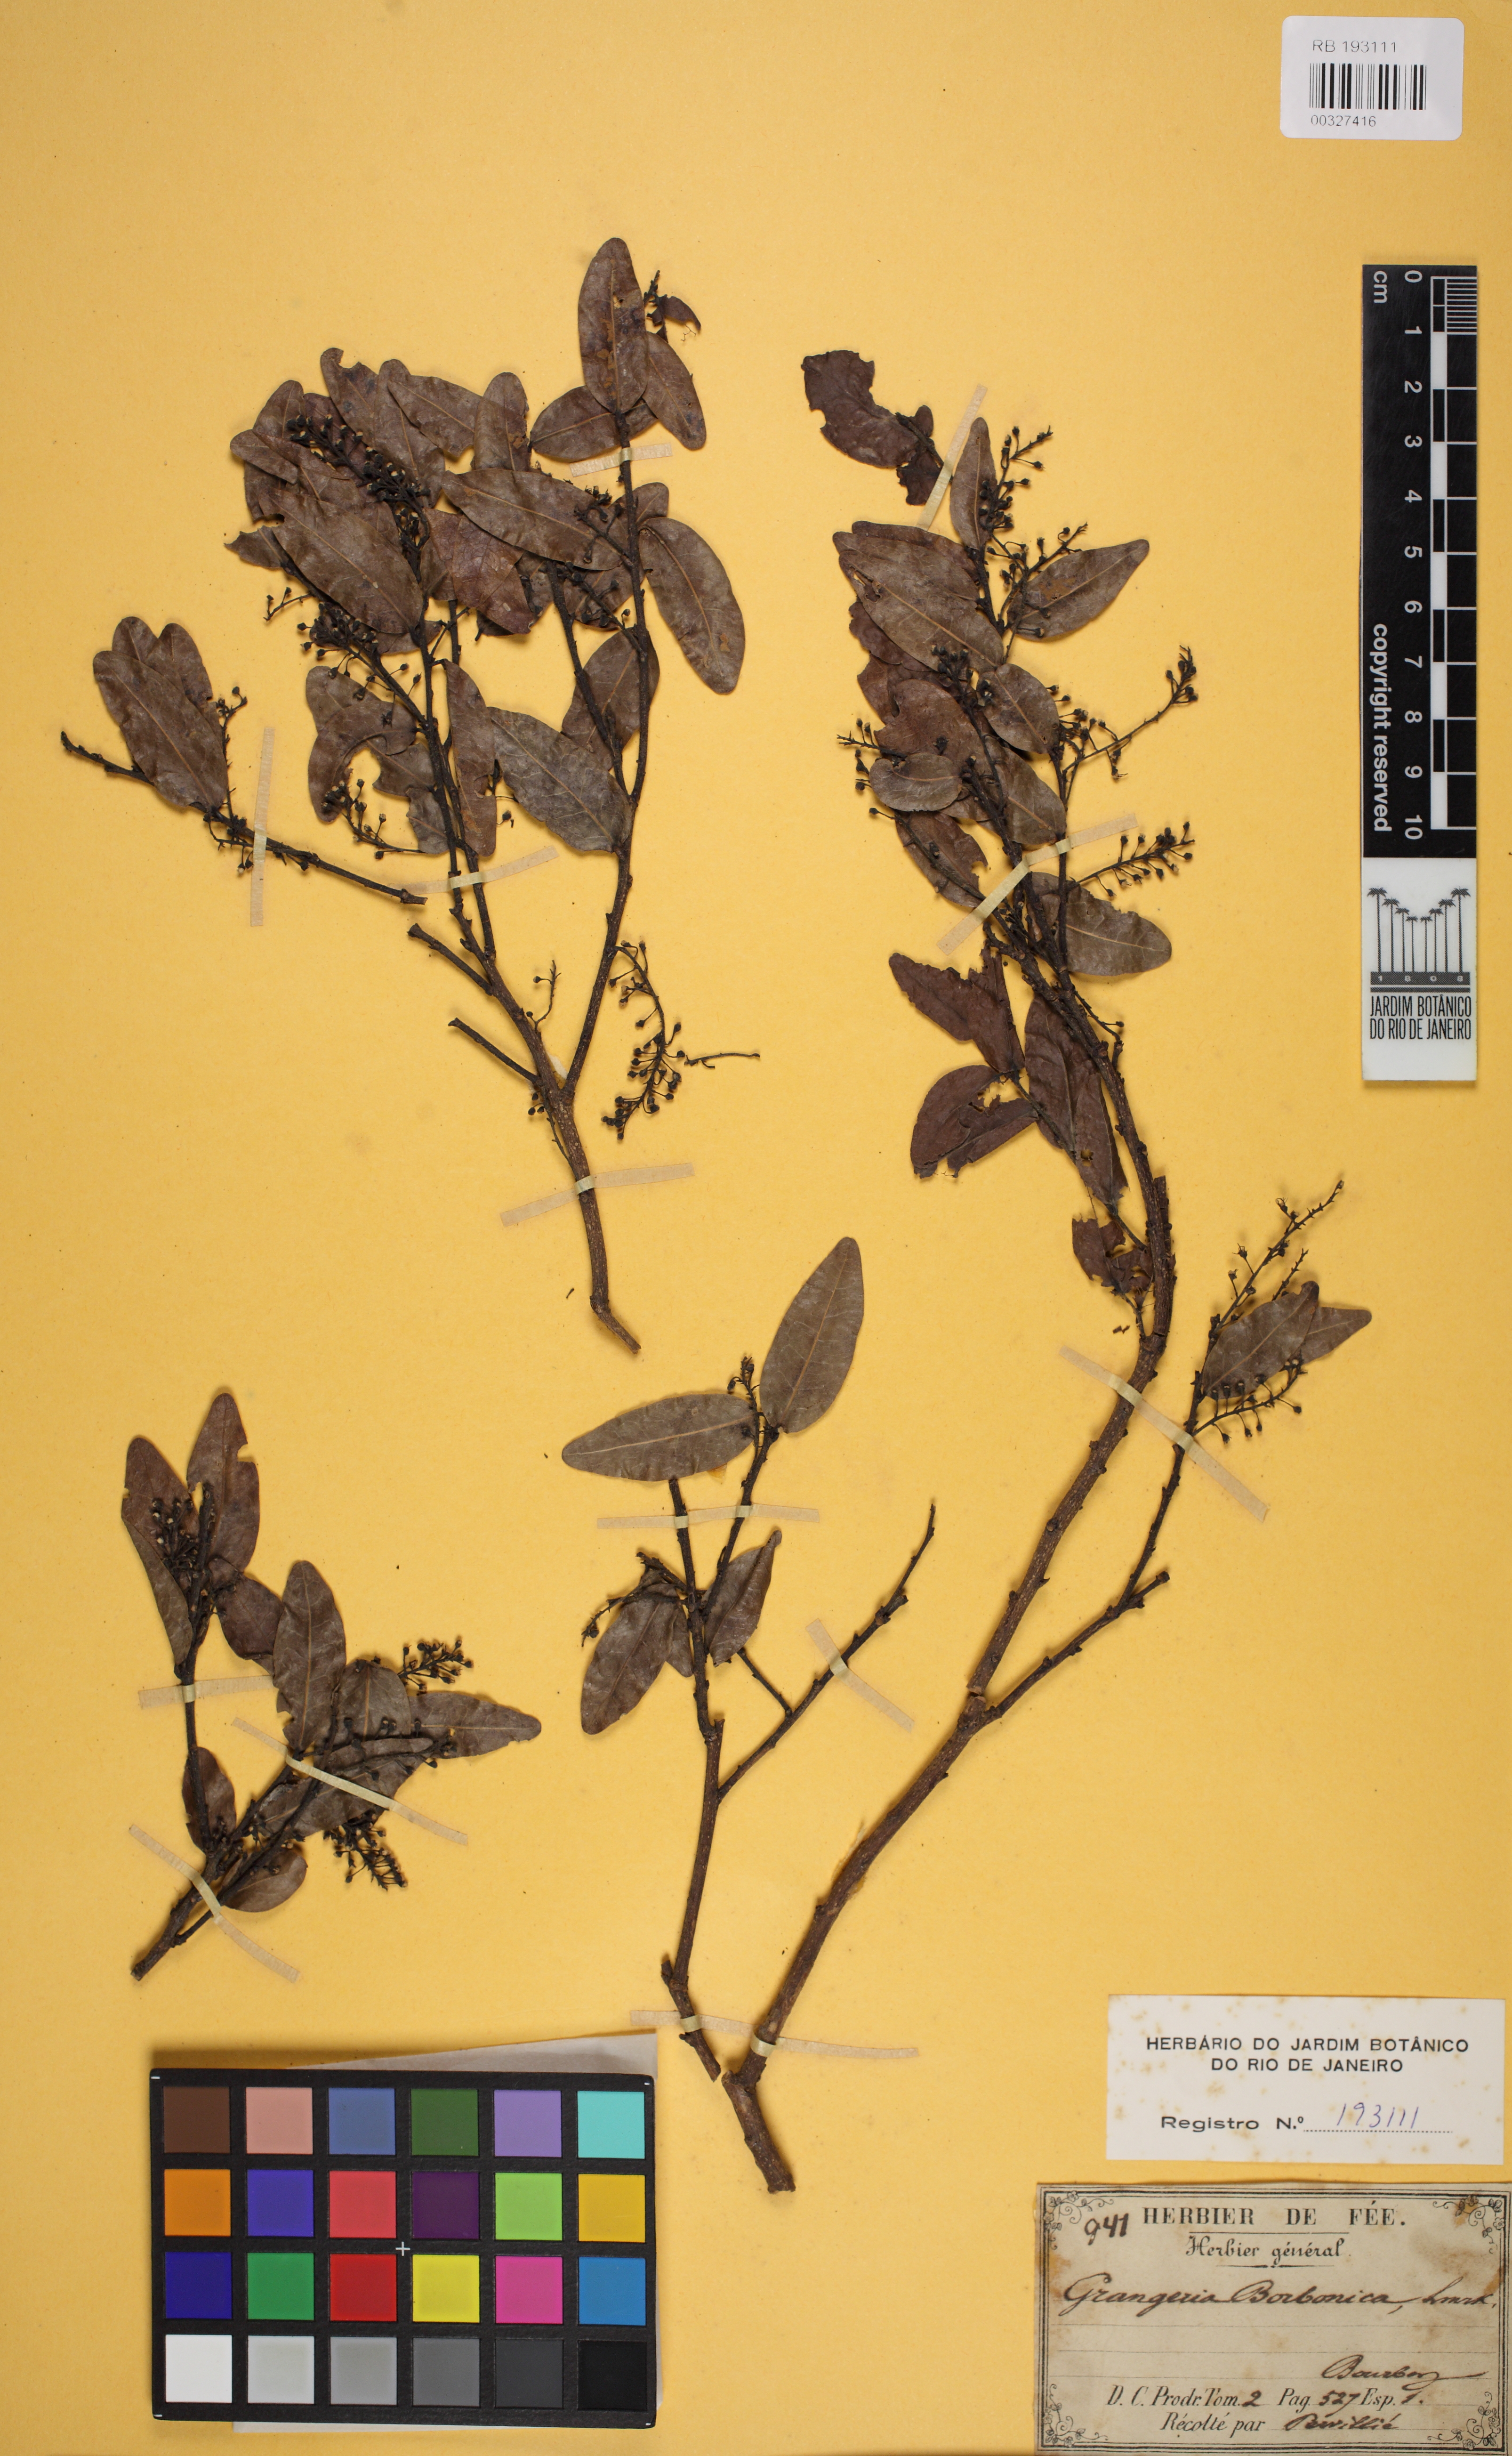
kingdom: Plantae
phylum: Tracheophyta
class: Magnoliopsida
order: Malpighiales
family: Chrysobalanaceae
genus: Grangeria
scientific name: Grangeria borbonica
